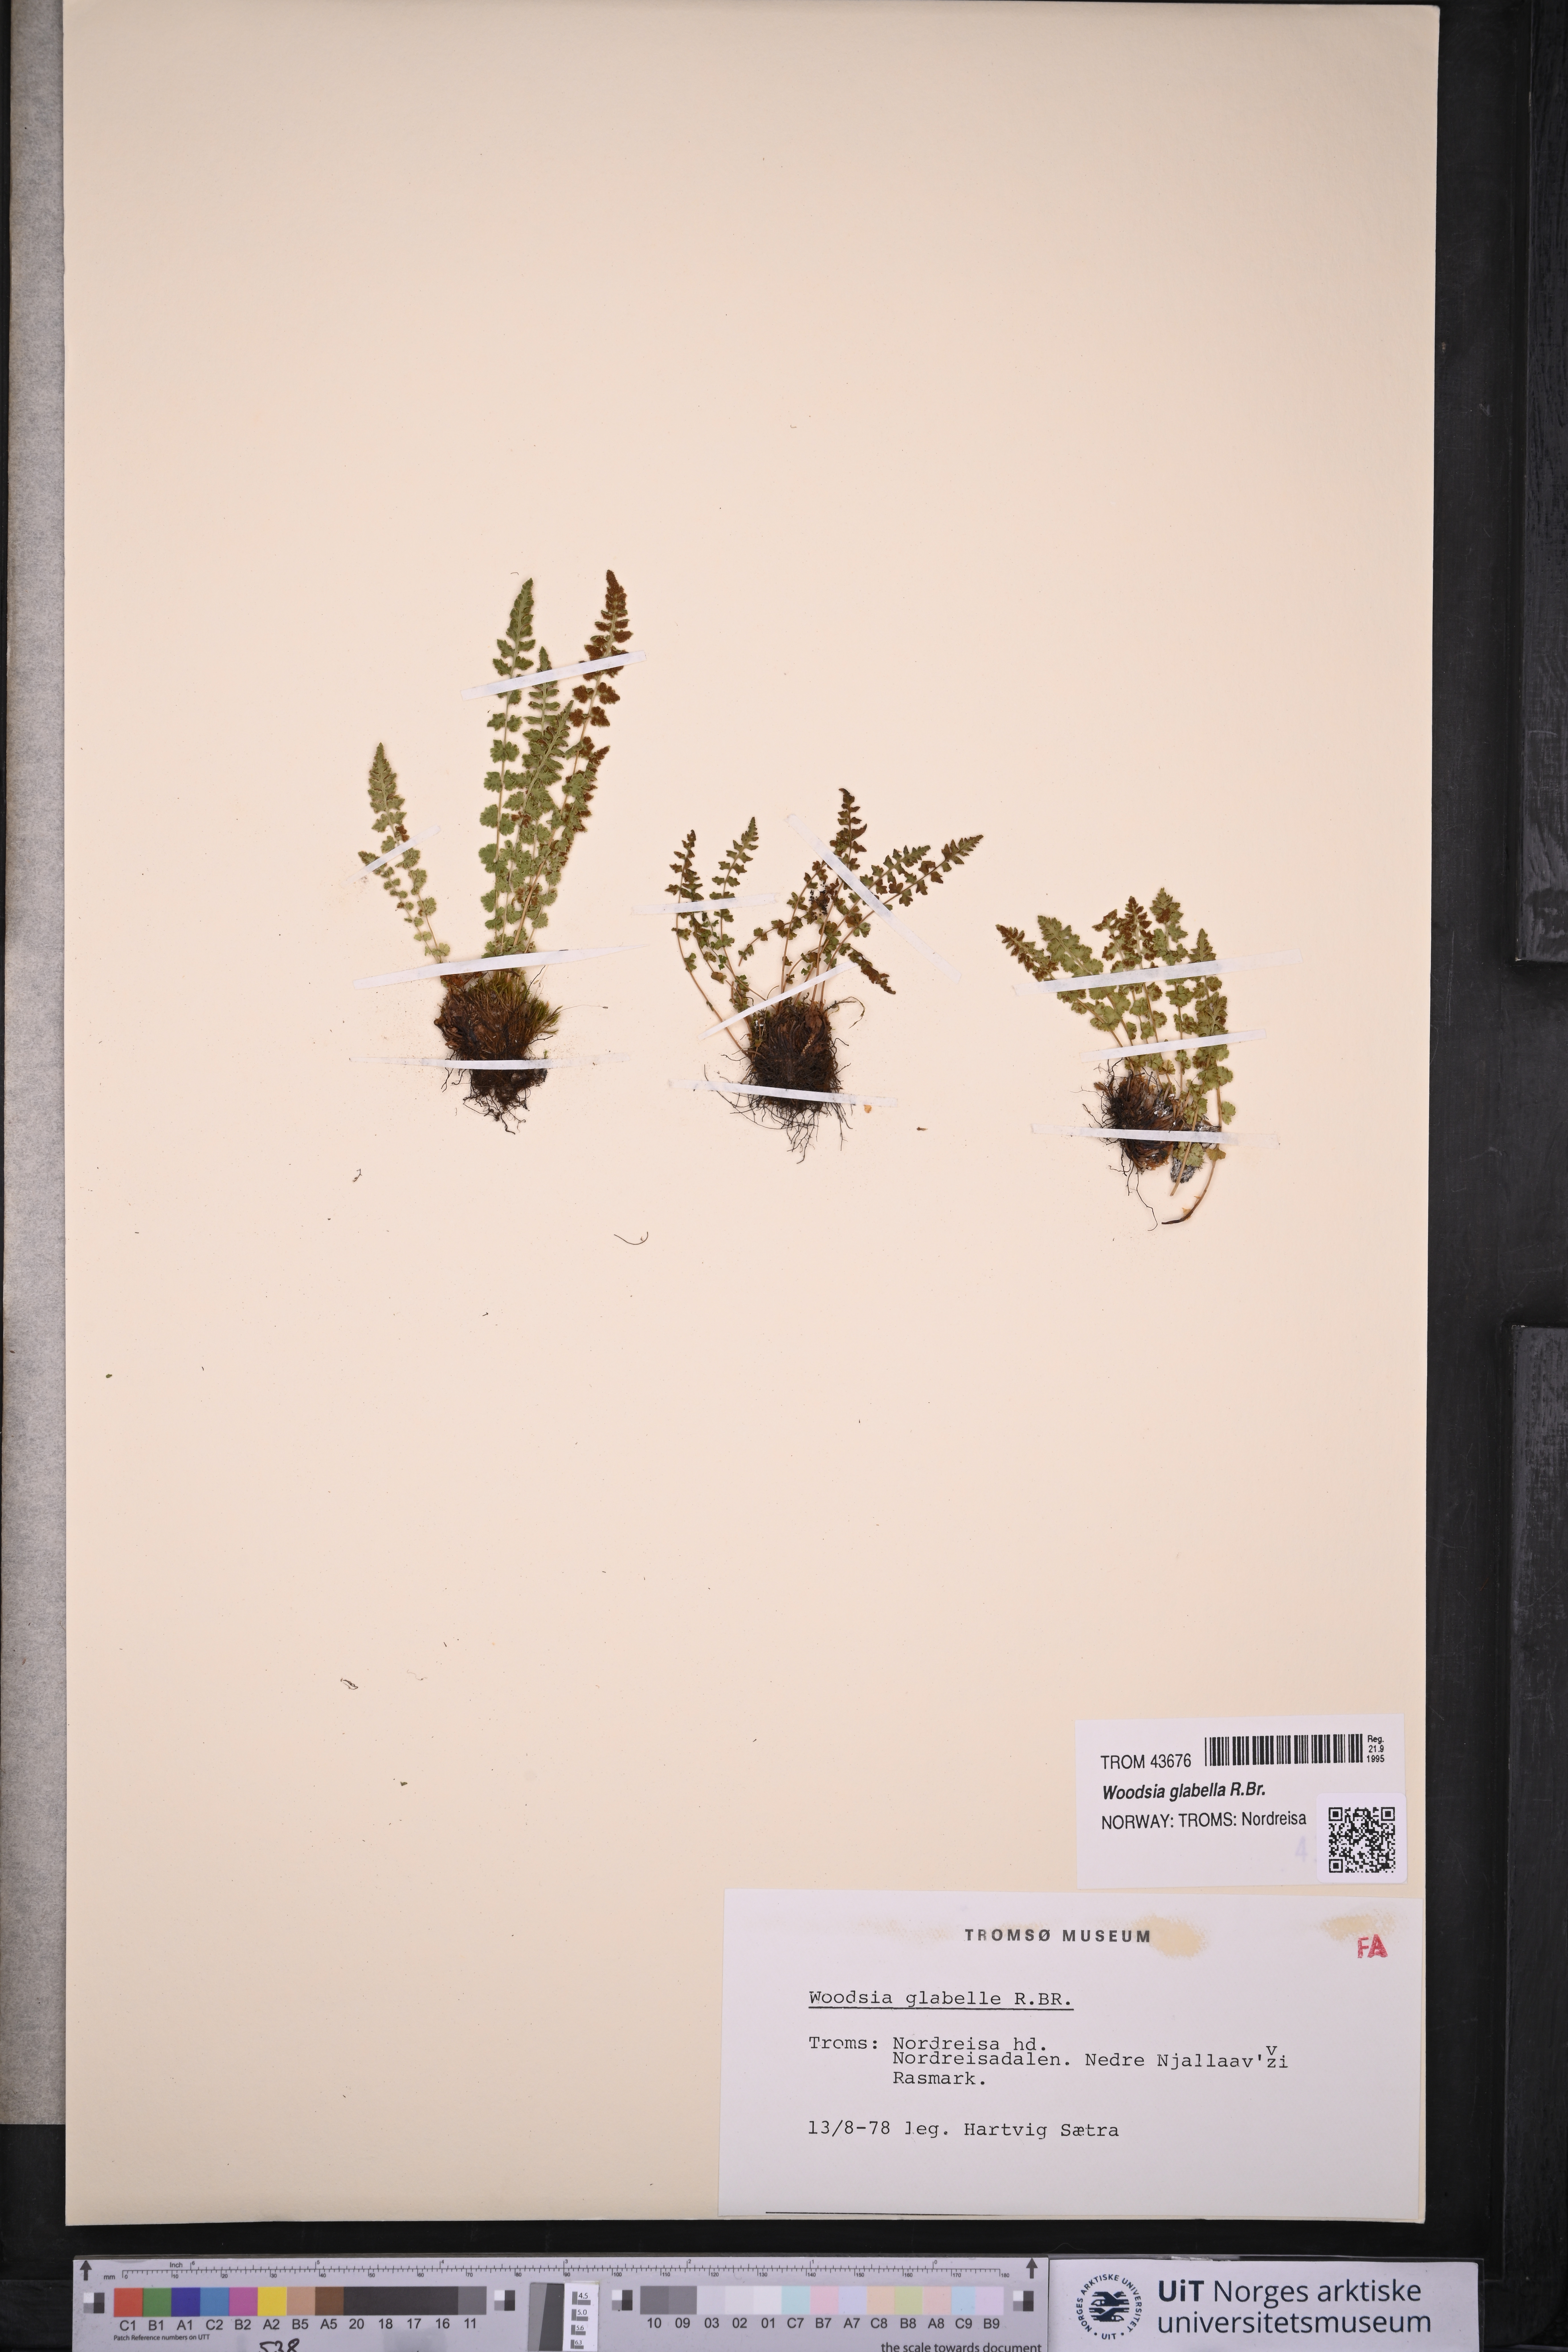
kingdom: Plantae
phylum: Tracheophyta
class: Polypodiopsida
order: Polypodiales
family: Woodsiaceae
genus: Woodsia
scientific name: Woodsia glabella
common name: Smooth woodsia
